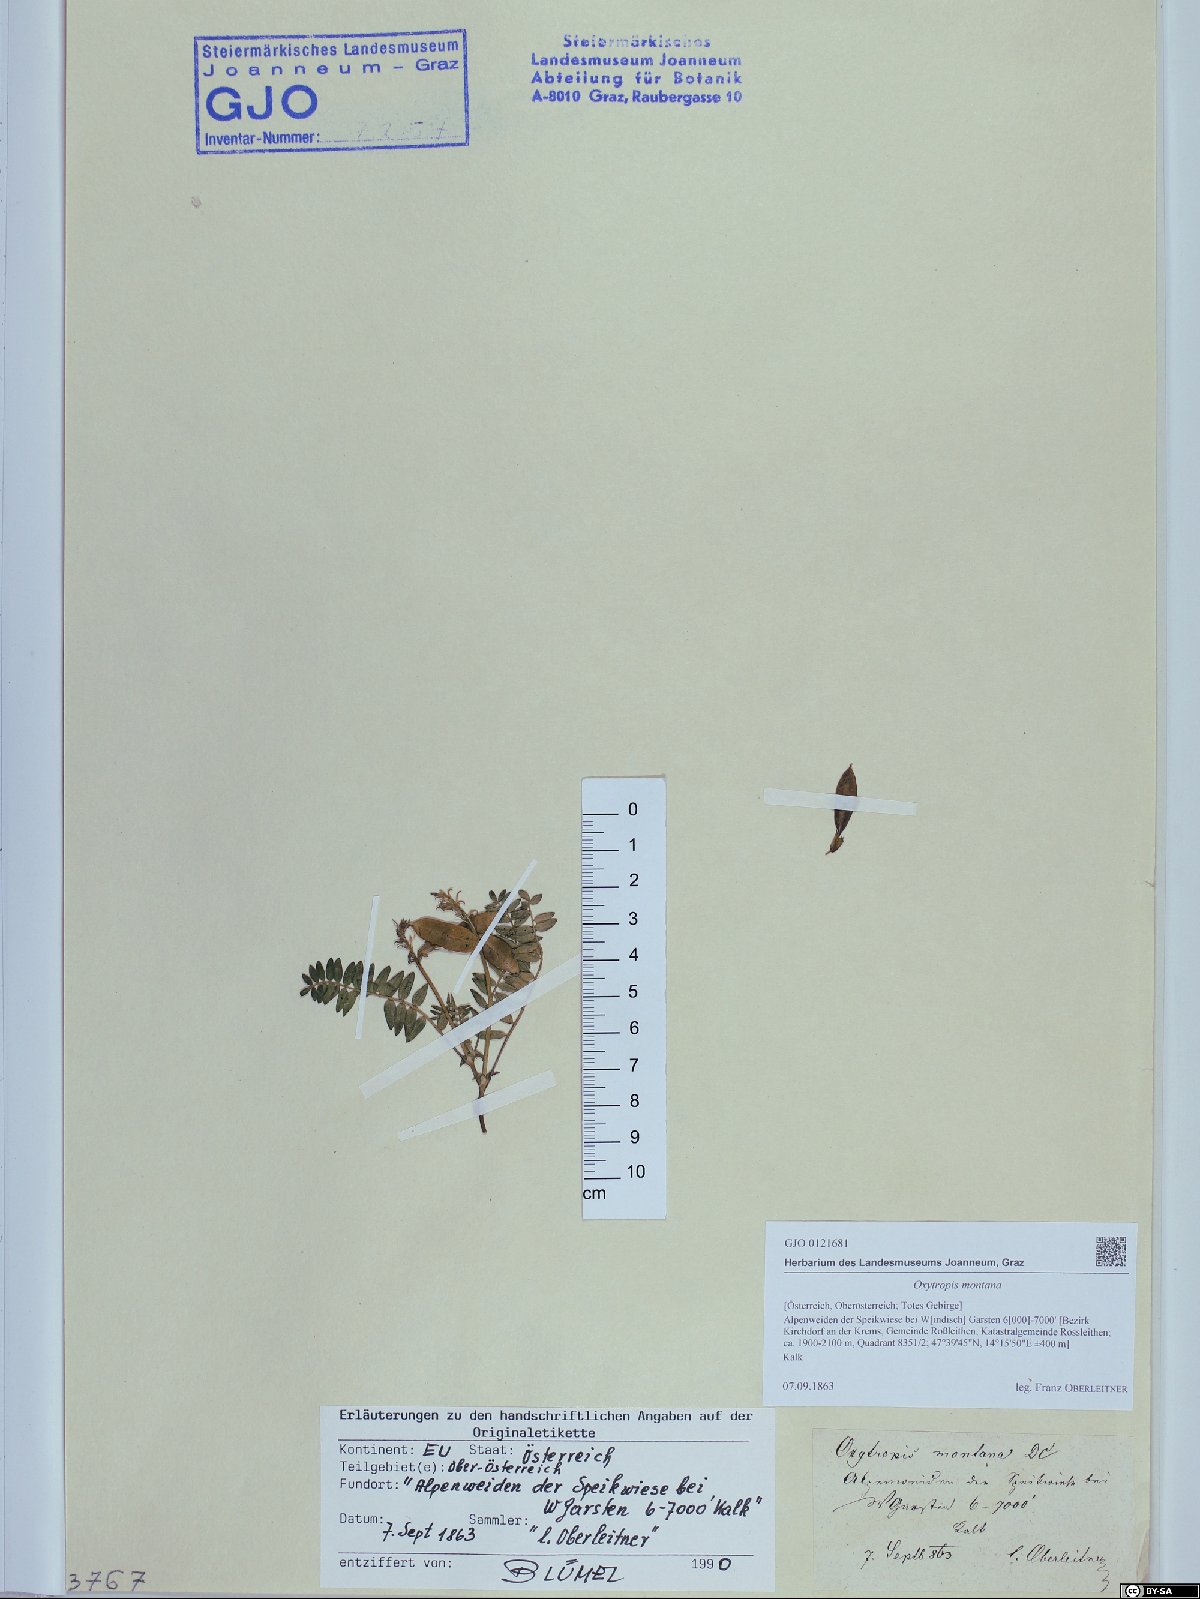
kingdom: Plantae
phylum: Tracheophyta
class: Magnoliopsida
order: Fabales
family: Fabaceae
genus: Oxytropis
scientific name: Oxytropis montana
